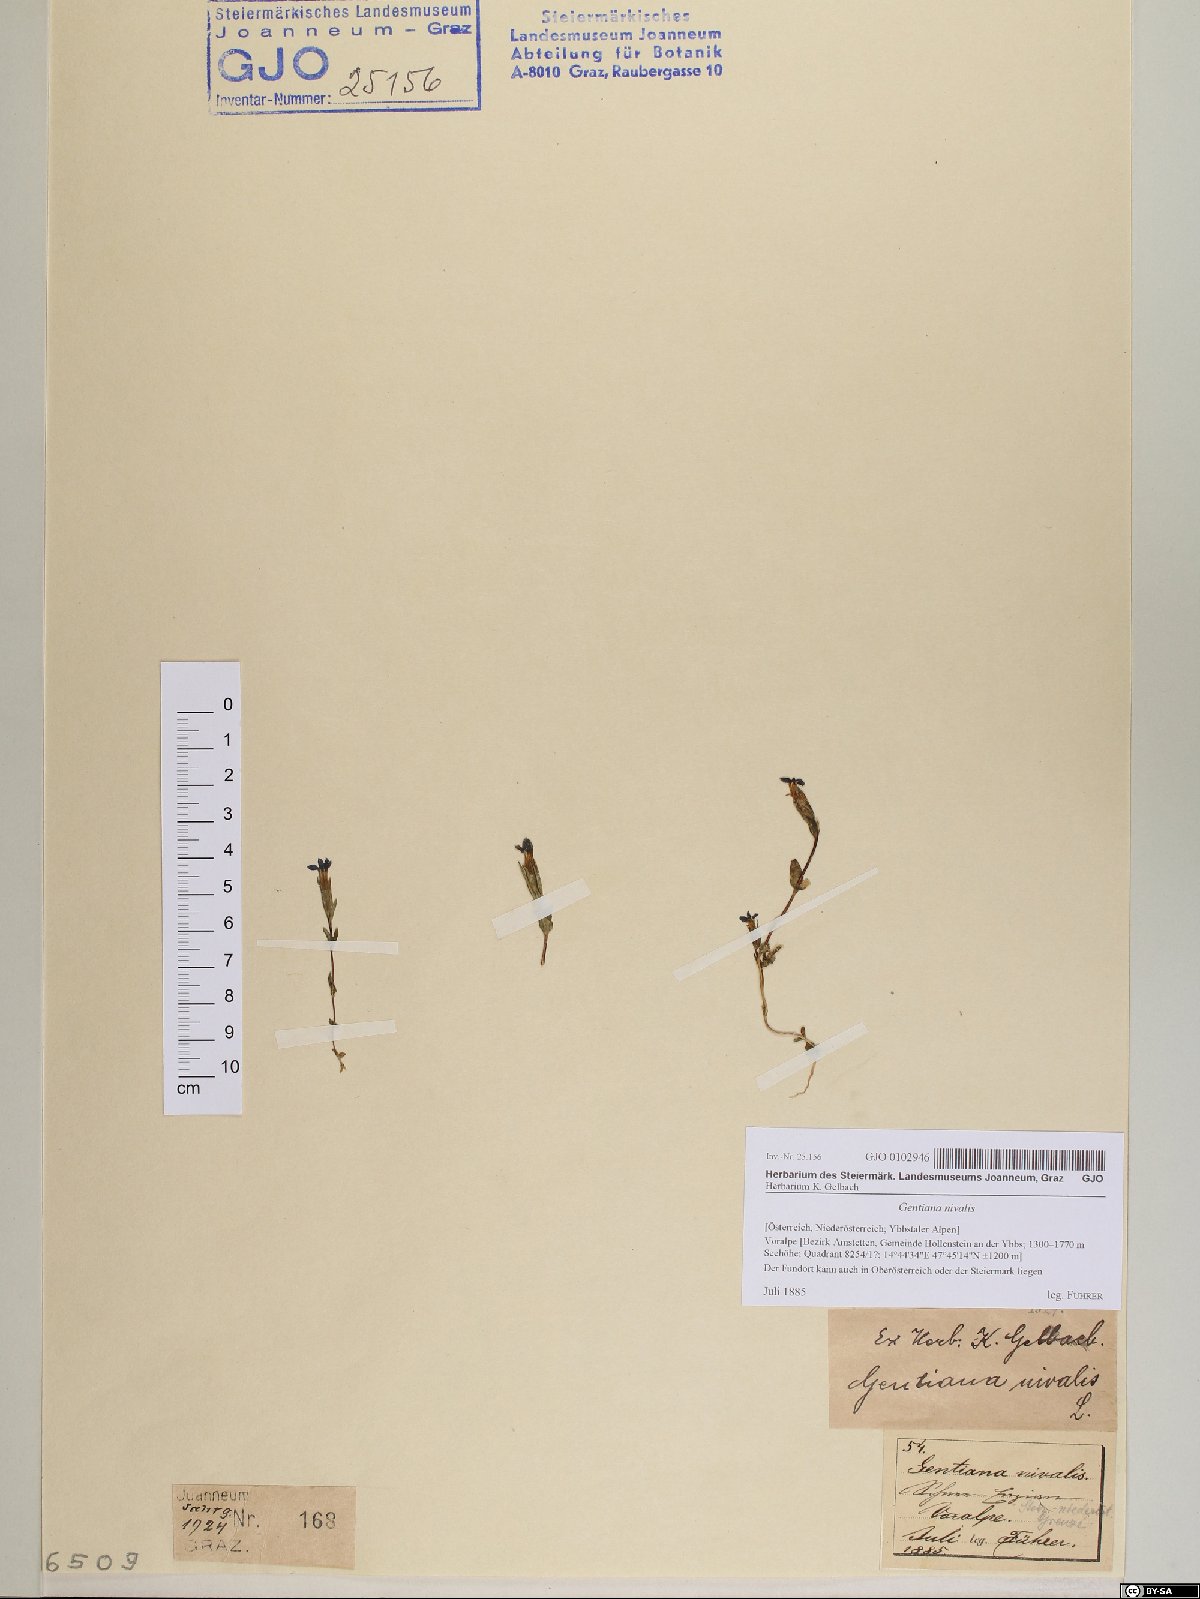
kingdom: Plantae
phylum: Tracheophyta
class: Magnoliopsida
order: Gentianales
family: Gentianaceae
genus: Gentiana
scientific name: Gentiana nivalis
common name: Alpine gentian
